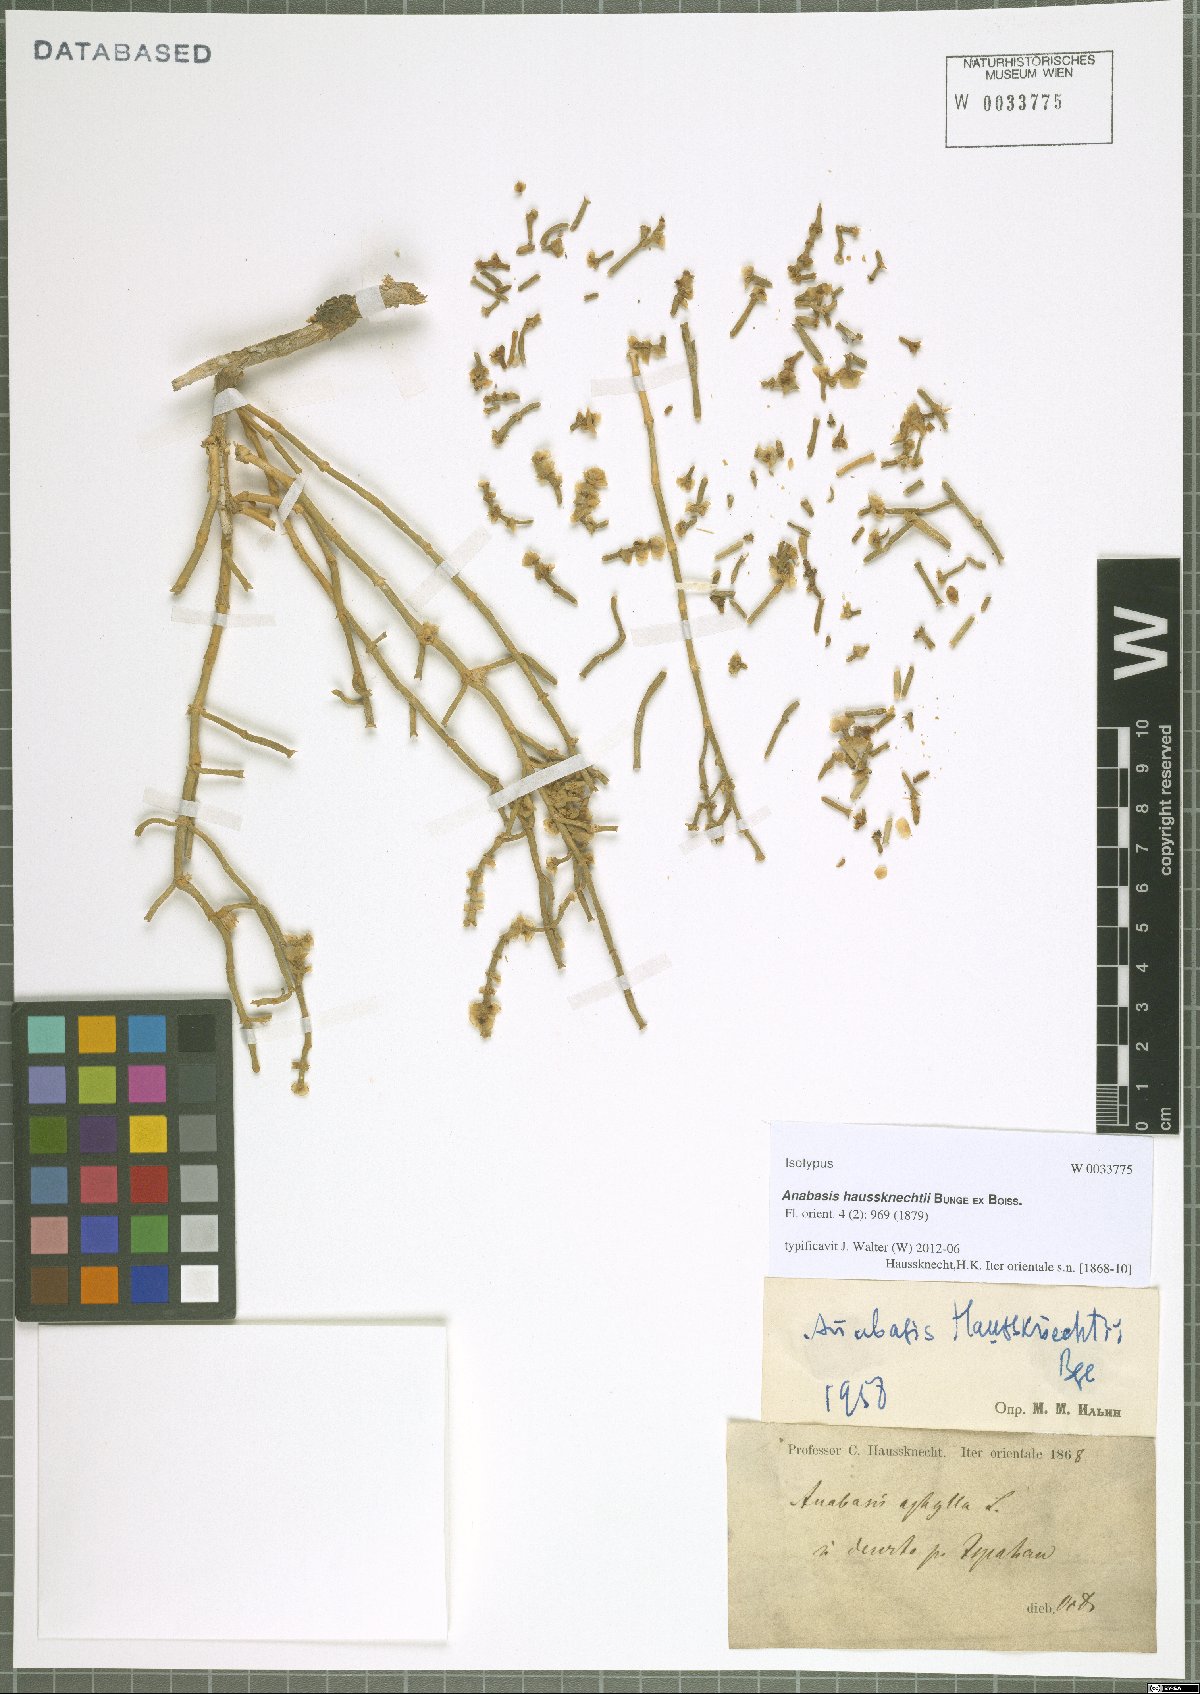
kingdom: Plantae
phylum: Tracheophyta
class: Magnoliopsida
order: Caryophyllales
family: Amaranthaceae
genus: Anabasis
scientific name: Anabasis haussknechtii
